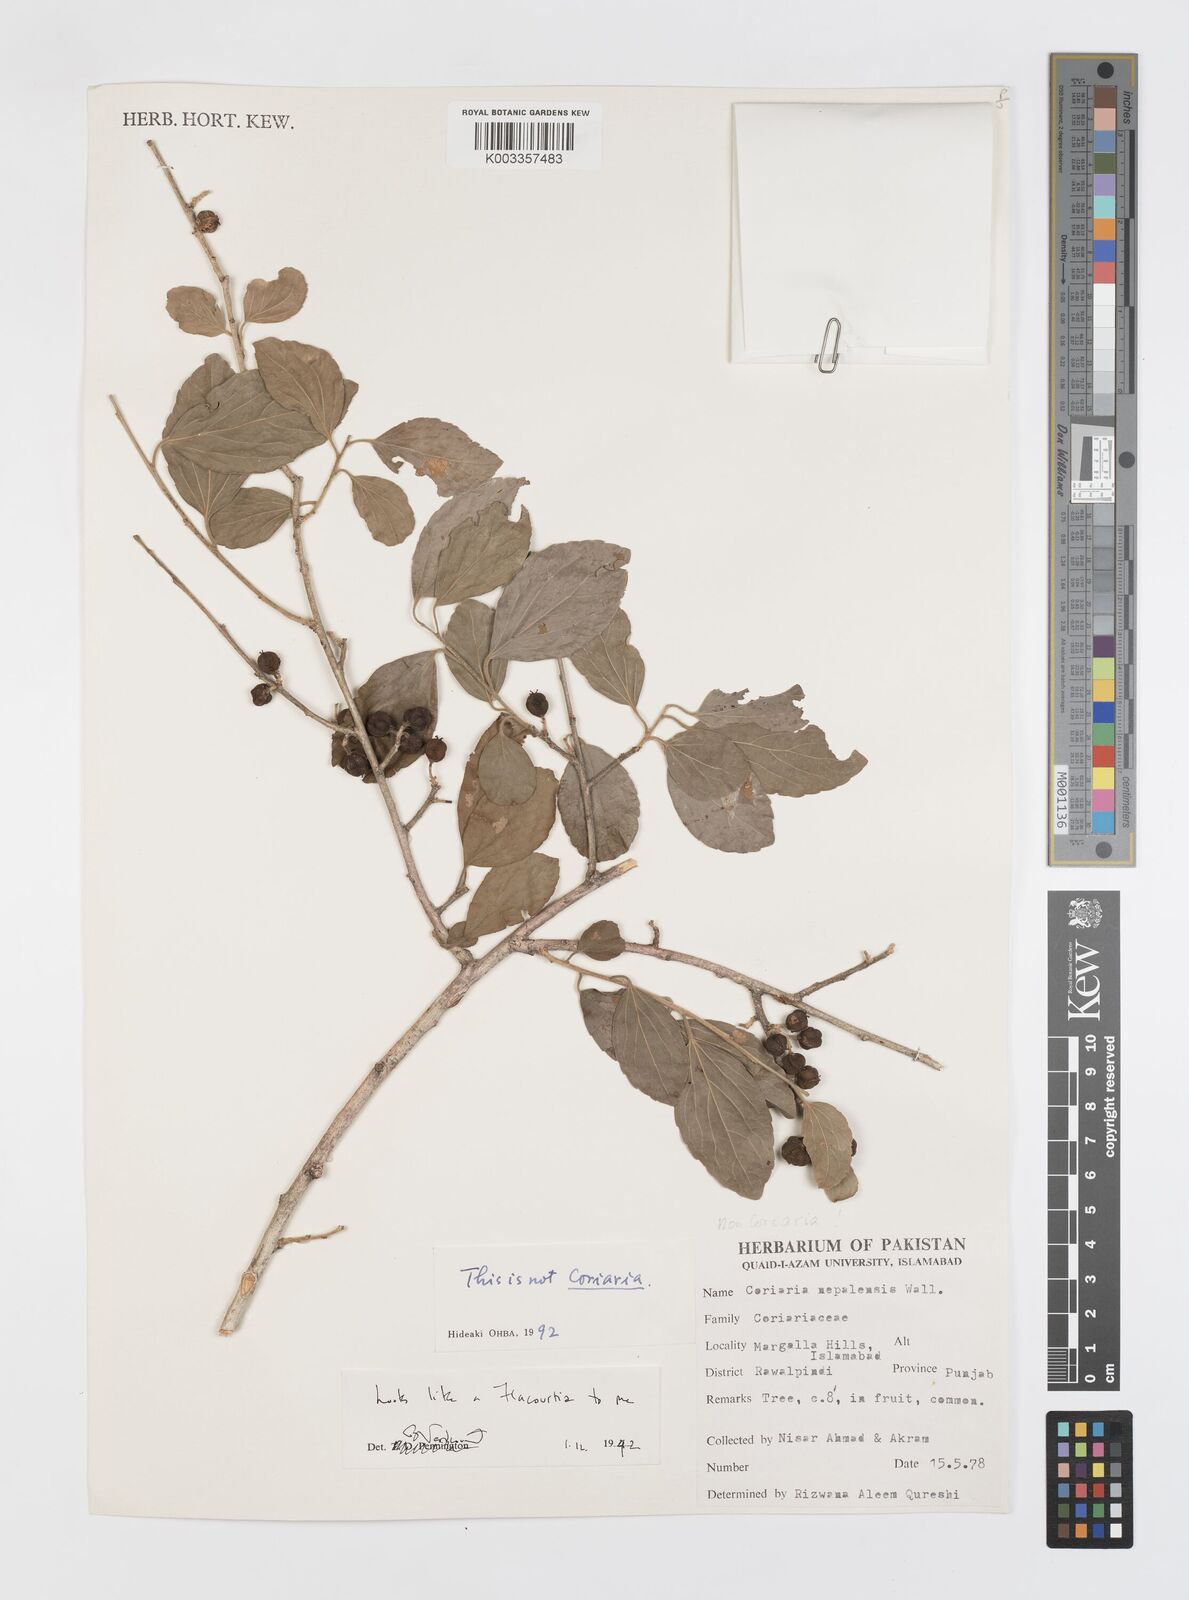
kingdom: Plantae
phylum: Tracheophyta
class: Magnoliopsida
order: Cucurbitales
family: Coriariaceae
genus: Coriaria
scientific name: Coriaria myrtifolia
